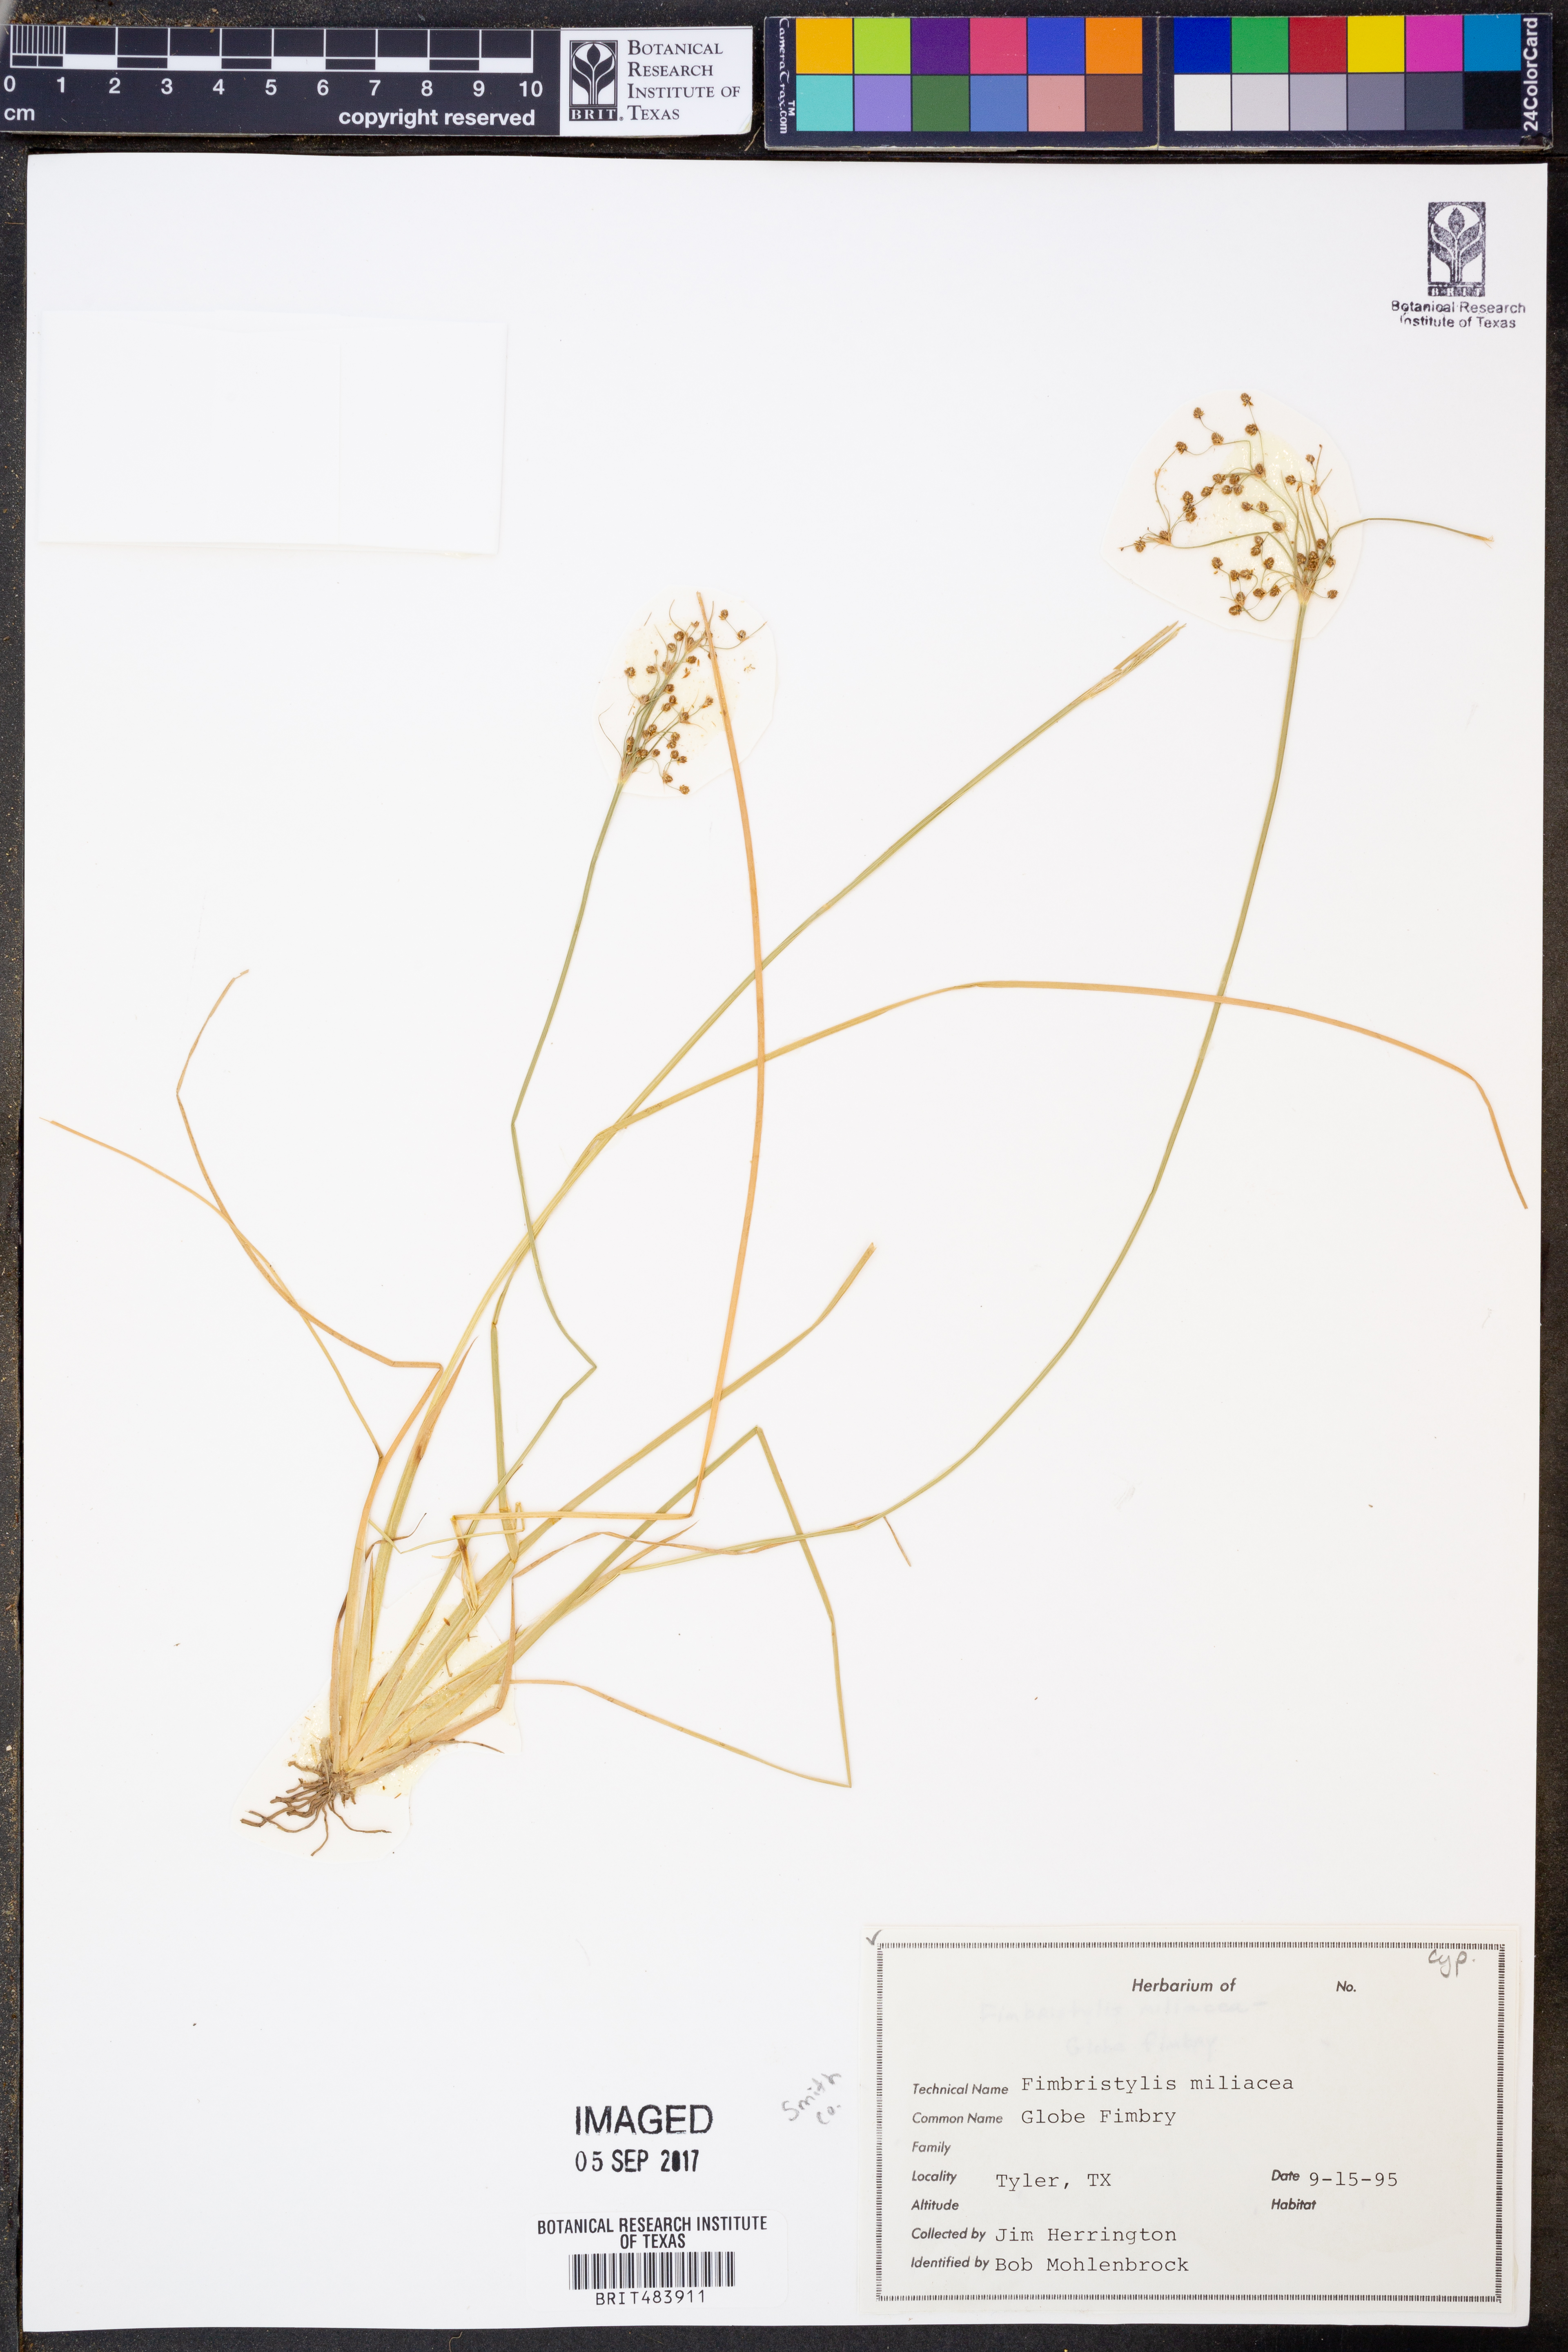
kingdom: Plantae
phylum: Tracheophyta
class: Liliopsida
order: Poales
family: Cyperaceae
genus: Fimbristylis
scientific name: Fimbristylis quinquangularis
